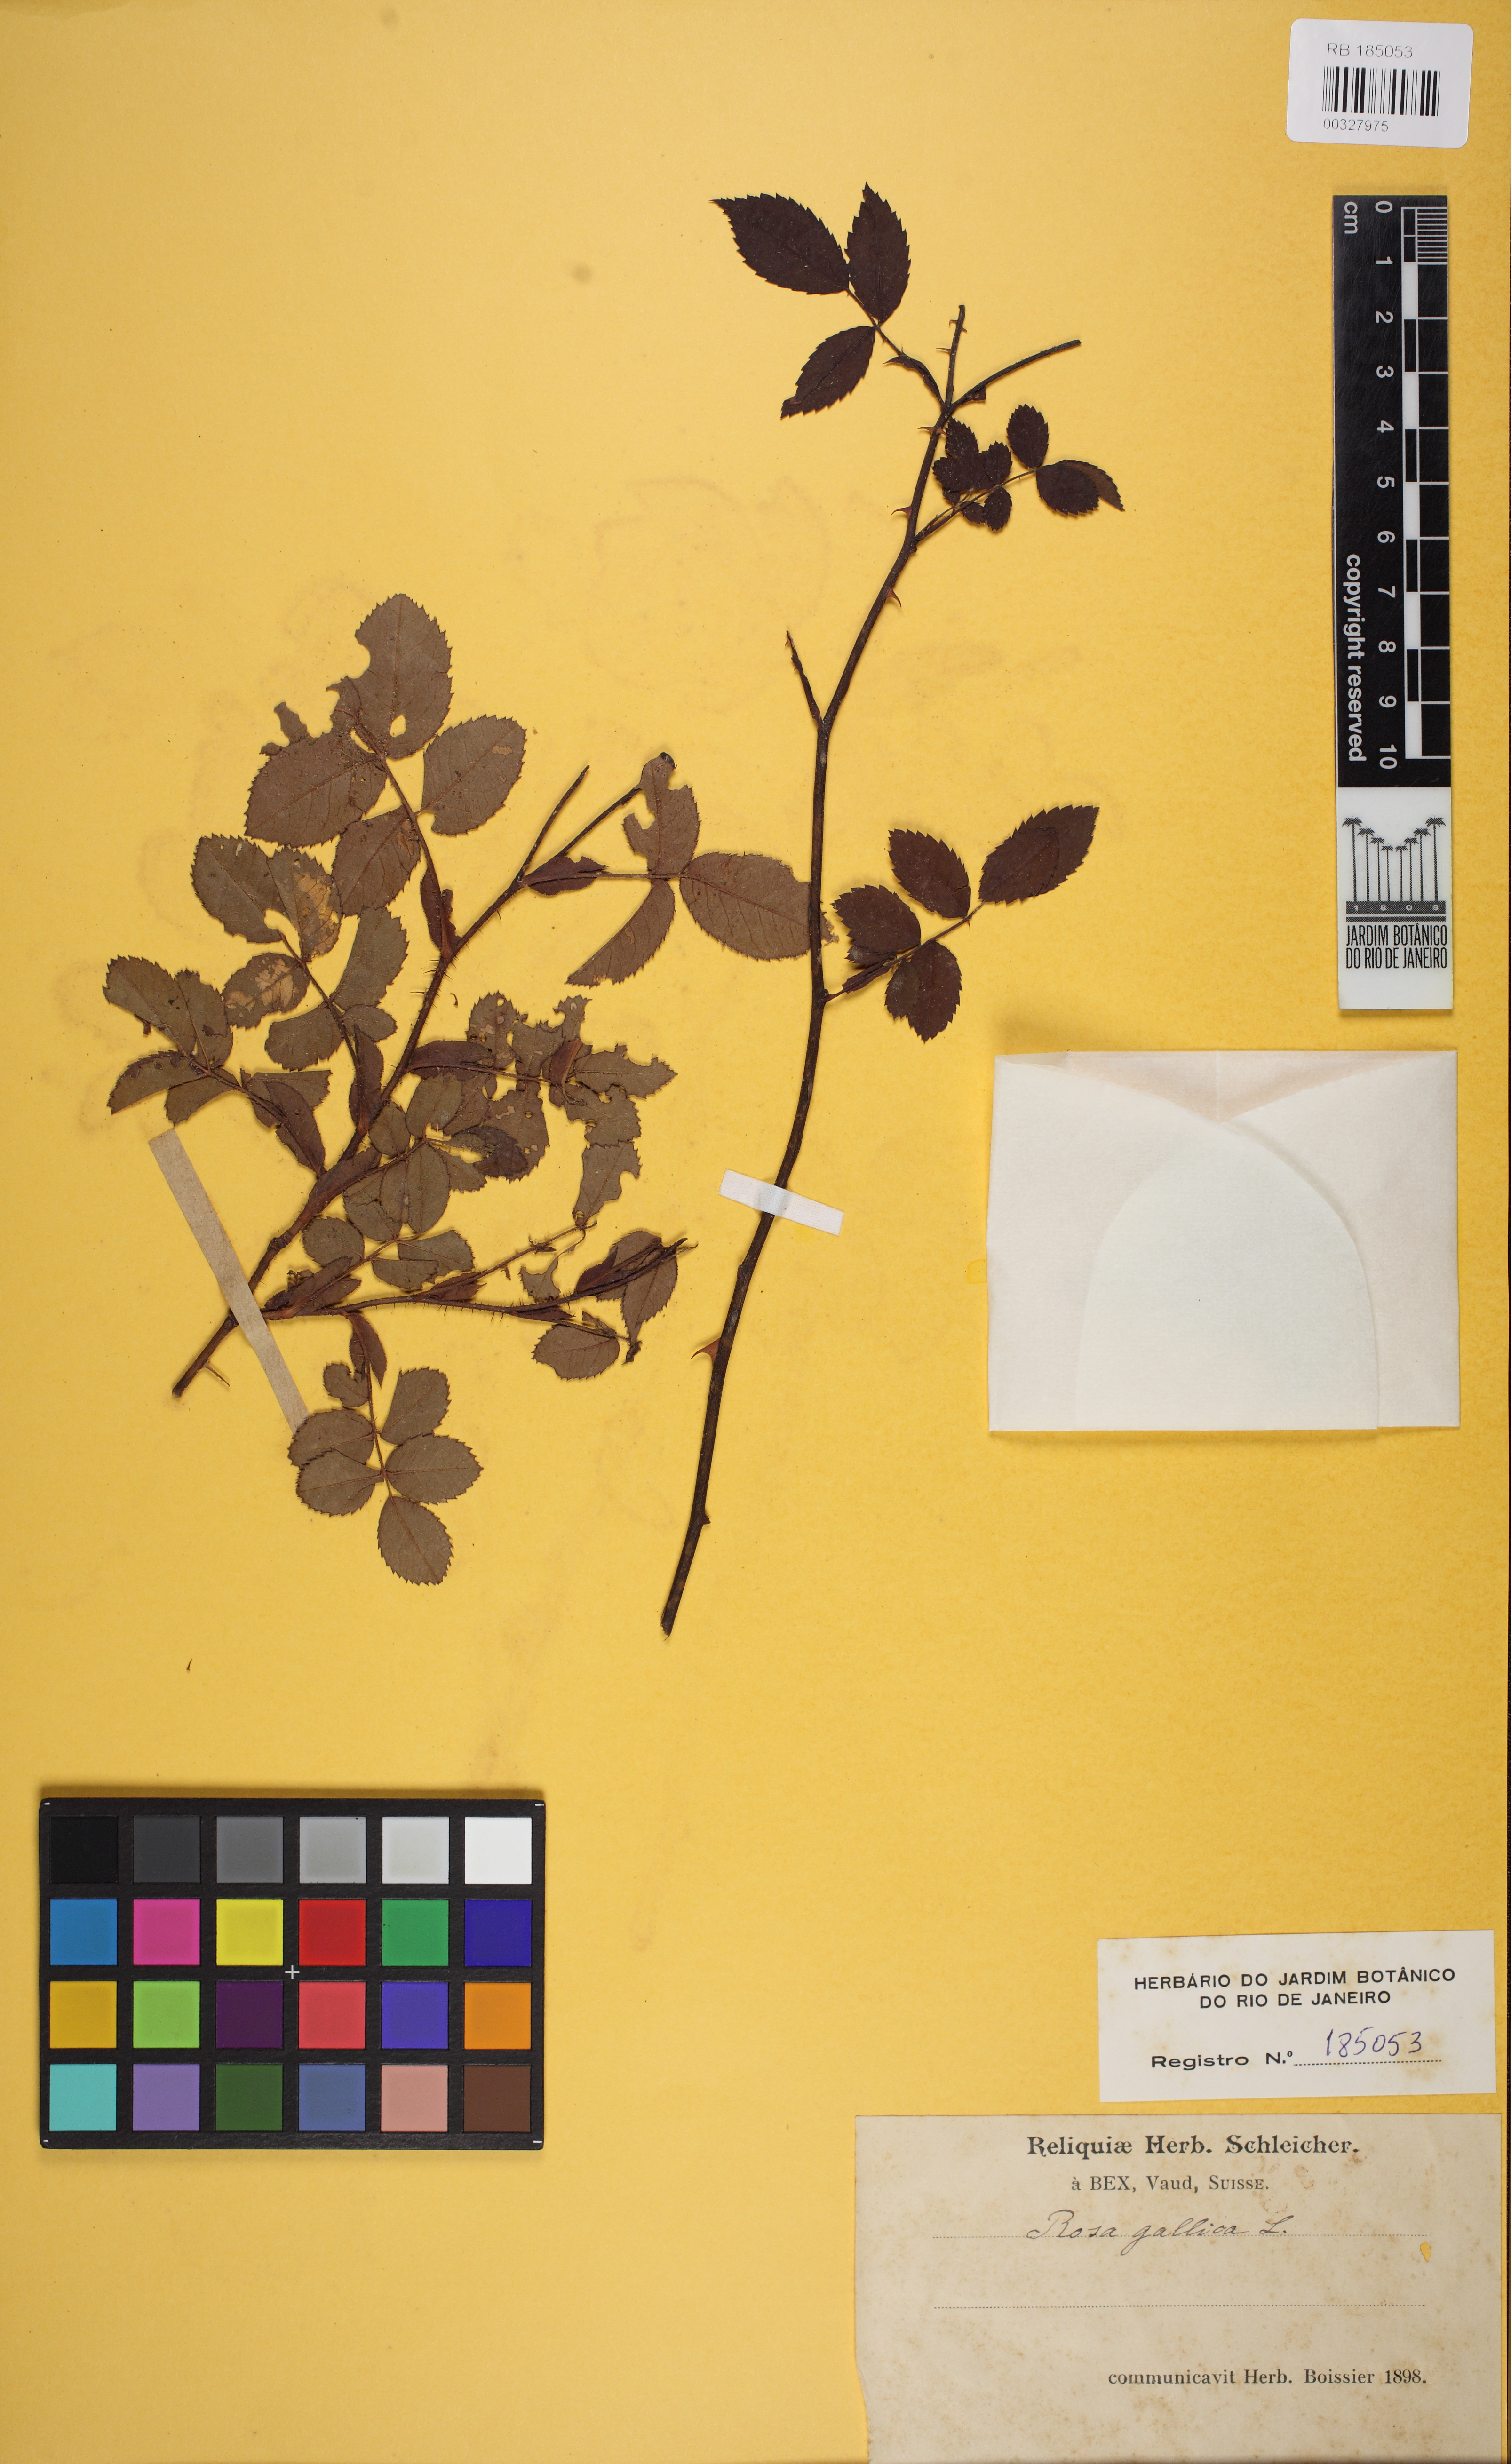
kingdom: Plantae
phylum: Tracheophyta
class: Magnoliopsida
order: Rosales
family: Rosaceae
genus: Rosa
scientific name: Rosa gallica
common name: French rose
